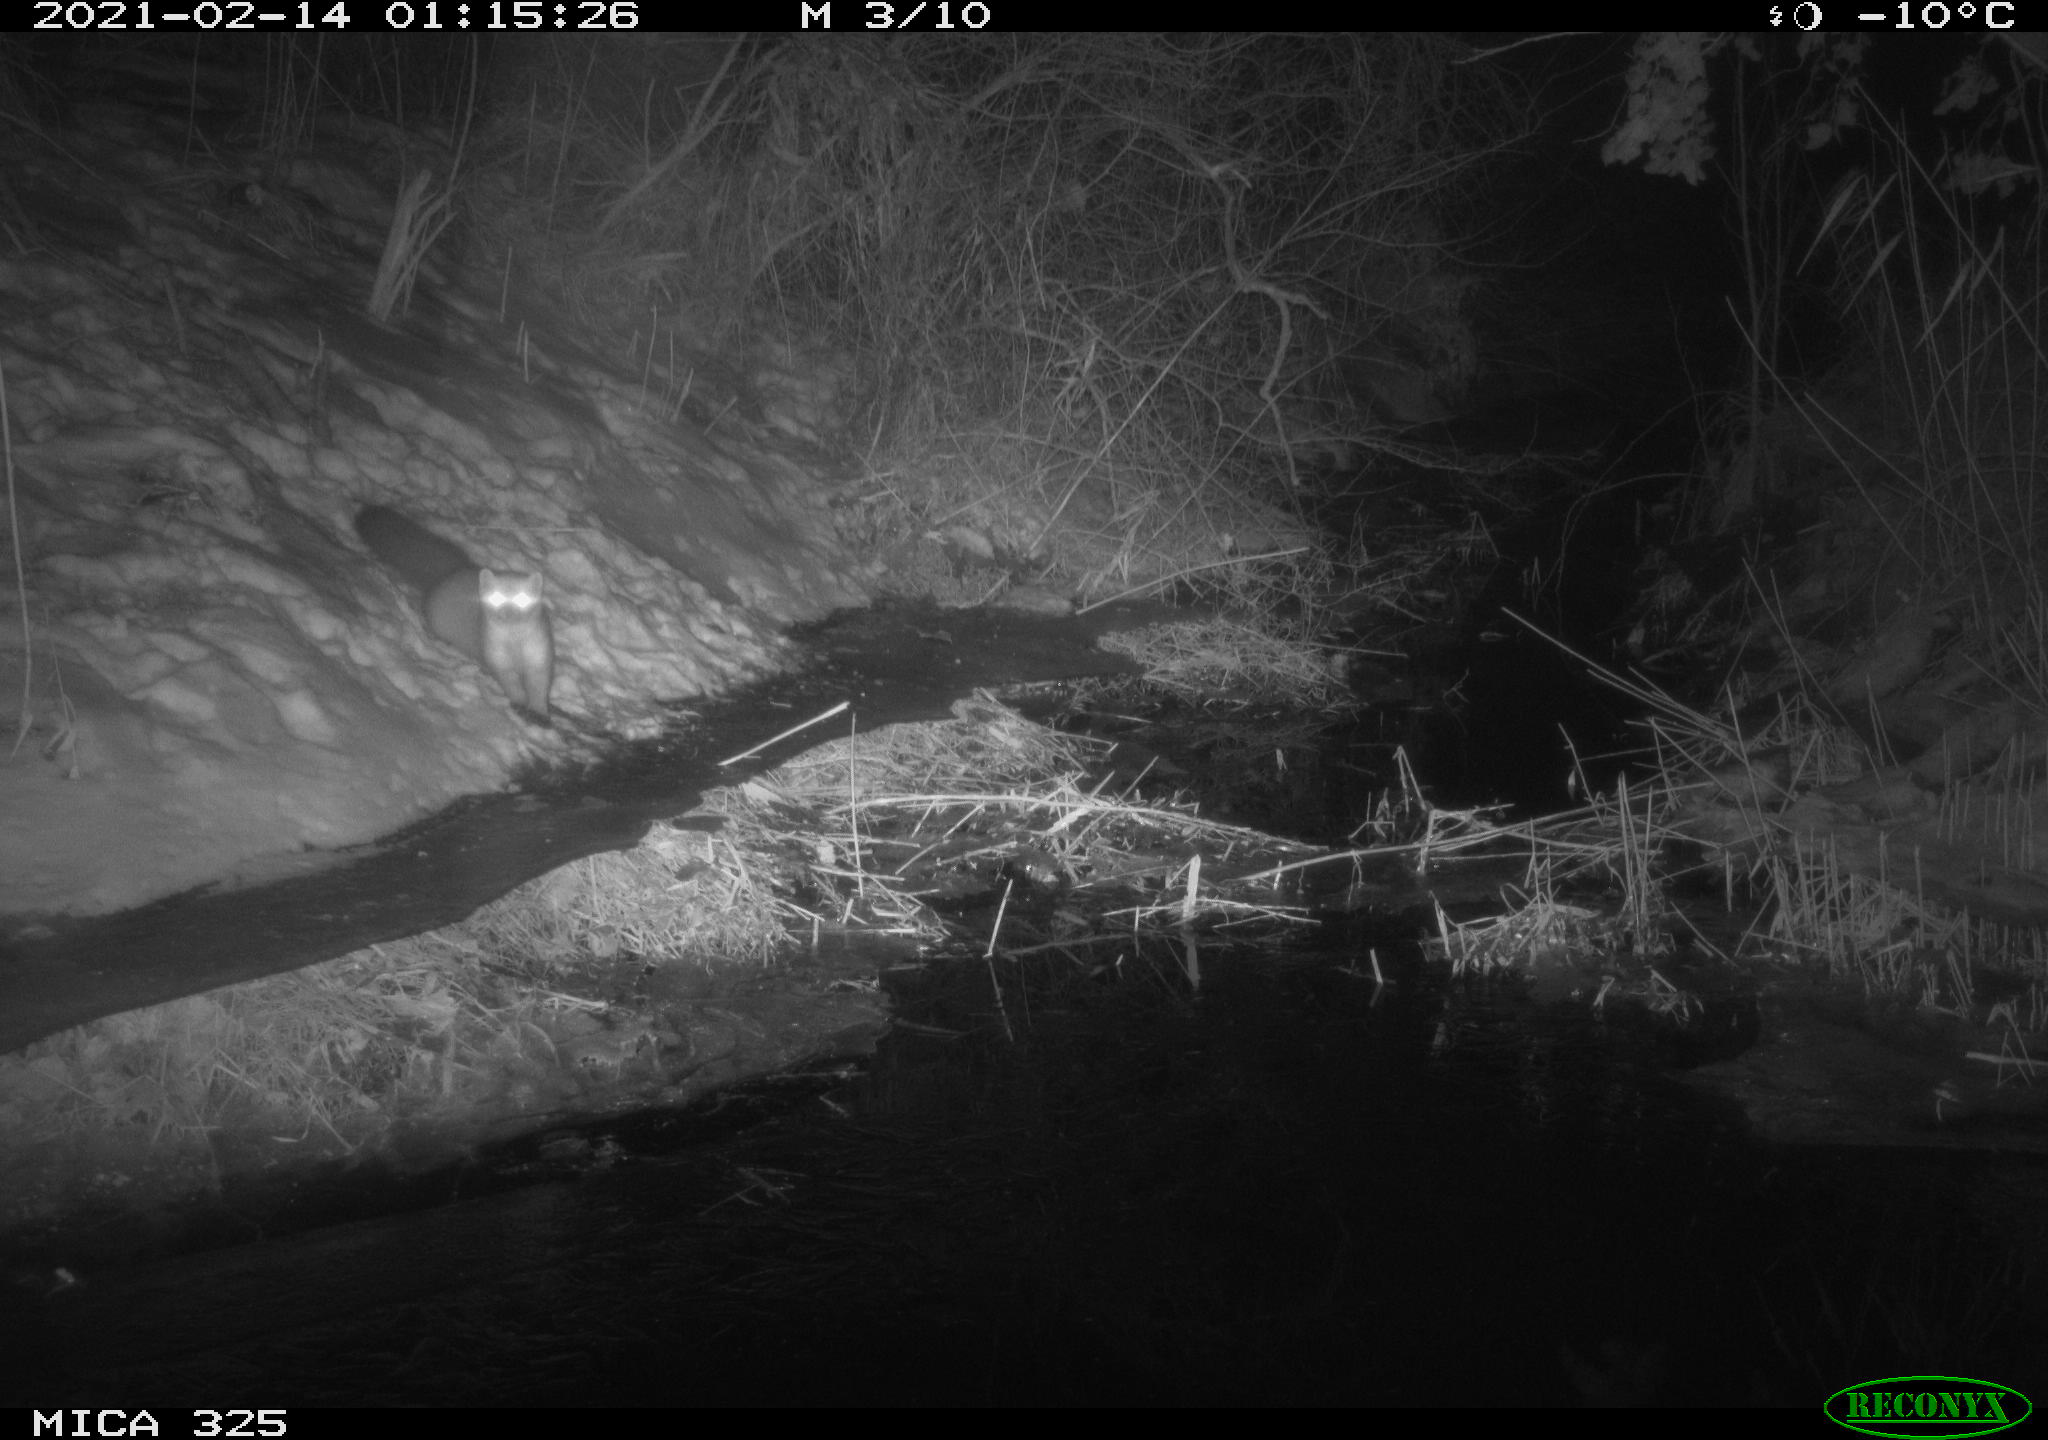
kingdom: Animalia
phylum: Chordata
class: Mammalia
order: Carnivora
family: Mustelidae
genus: Martes
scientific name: Martes martes
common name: European pine marten
